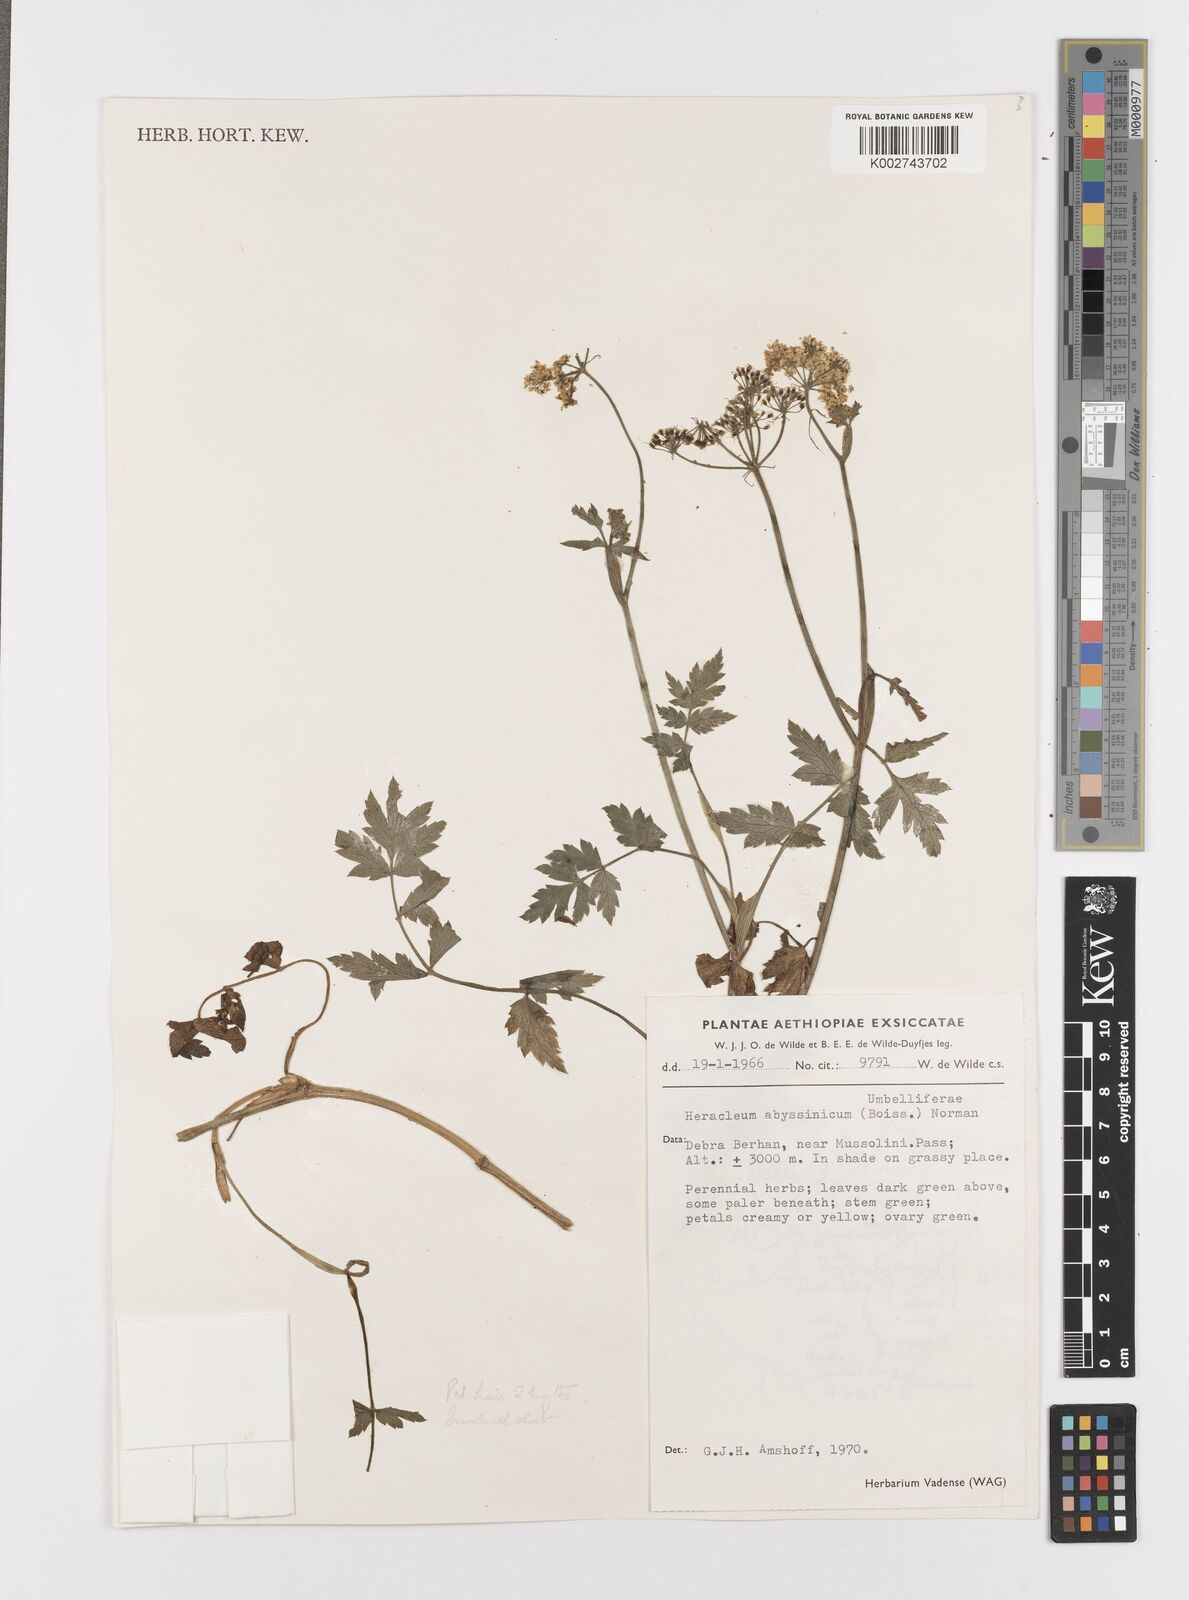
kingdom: Plantae
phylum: Tracheophyta
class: Magnoliopsida
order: Apiales
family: Apiaceae
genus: Heracleum
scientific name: Heracleum abyssinicum
